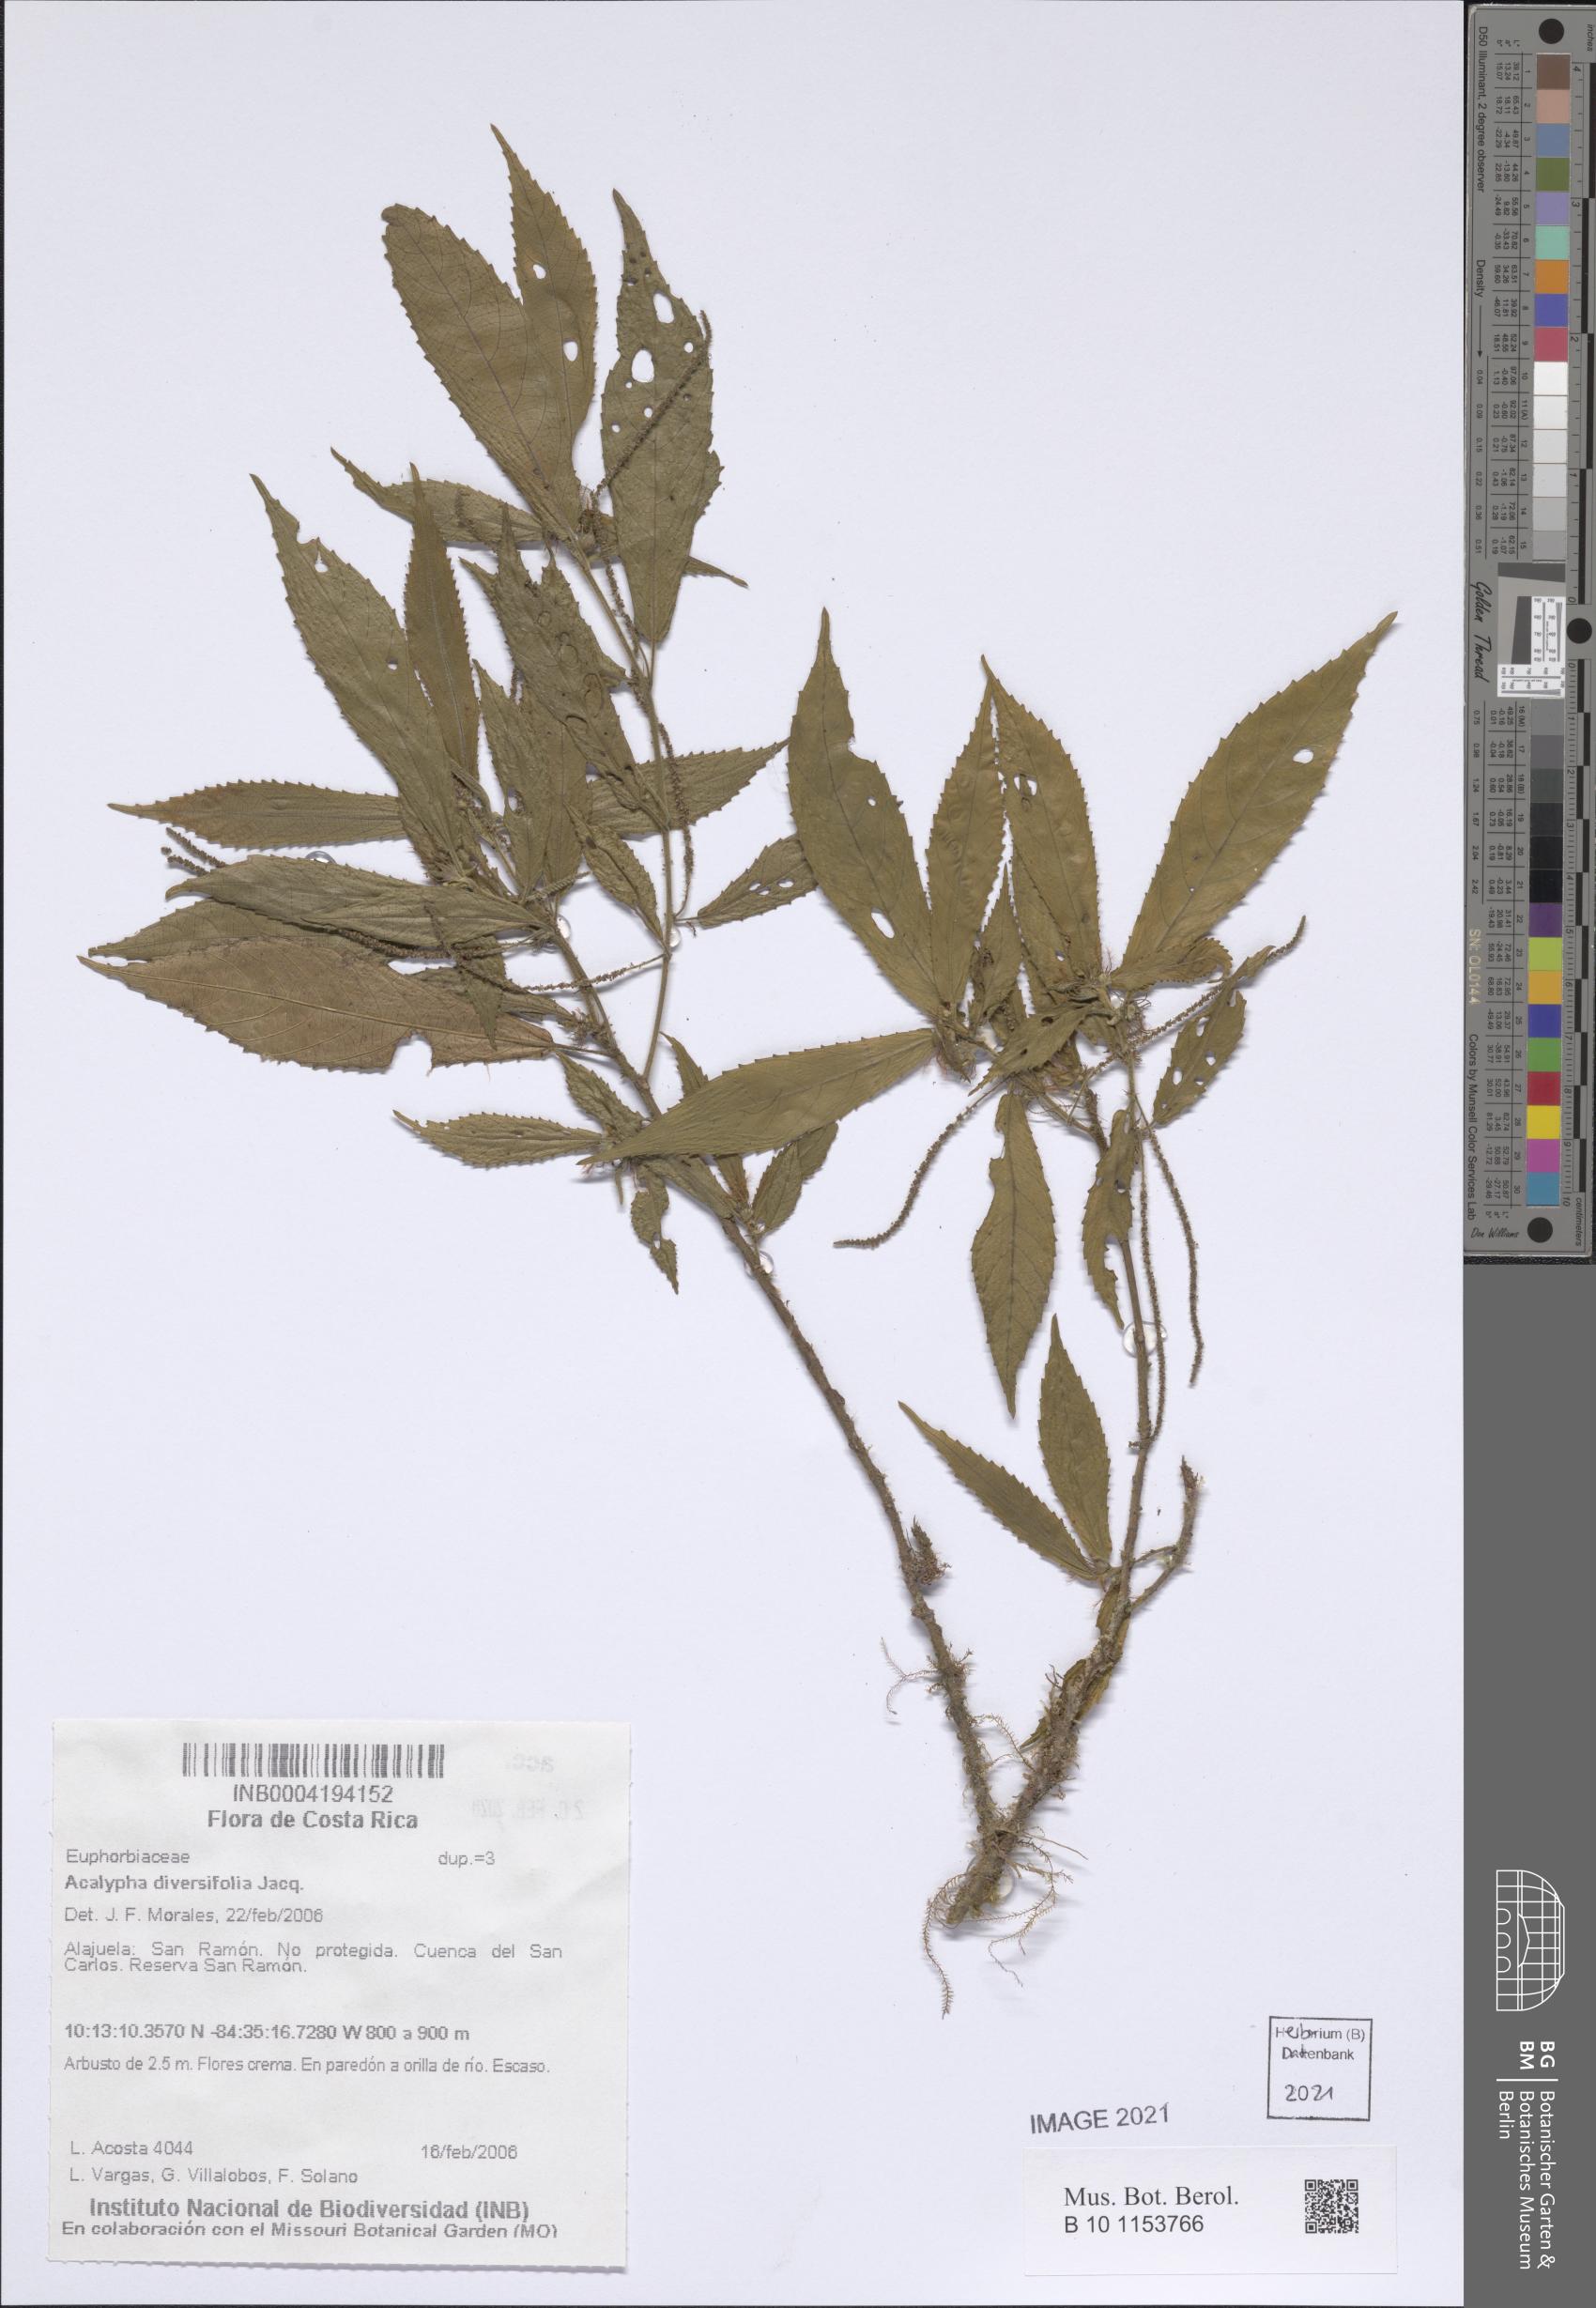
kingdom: Plantae
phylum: Tracheophyta
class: Magnoliopsida
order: Malpighiales
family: Euphorbiaceae
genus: Acalypha
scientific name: Acalypha apodanthes
